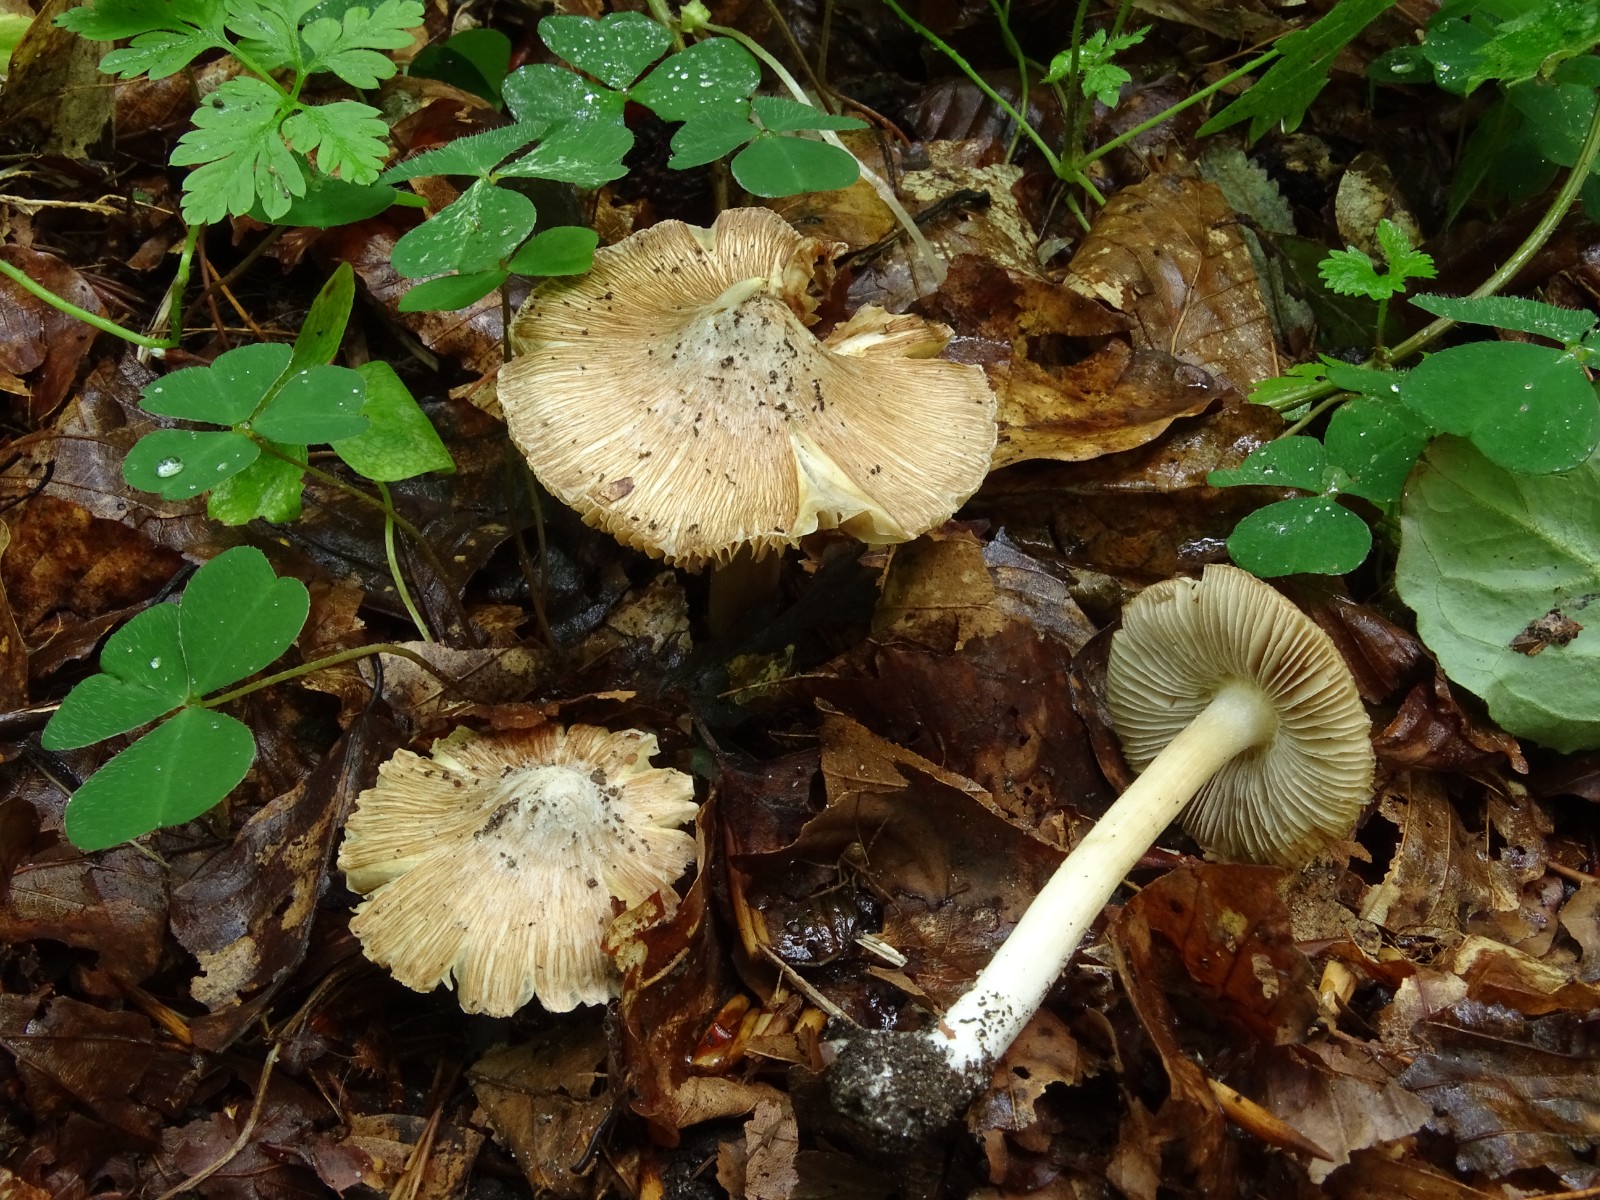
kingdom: Fungi
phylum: Basidiomycota
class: Agaricomycetes
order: Agaricales
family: Inocybaceae
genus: Inosperma
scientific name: Inosperma
